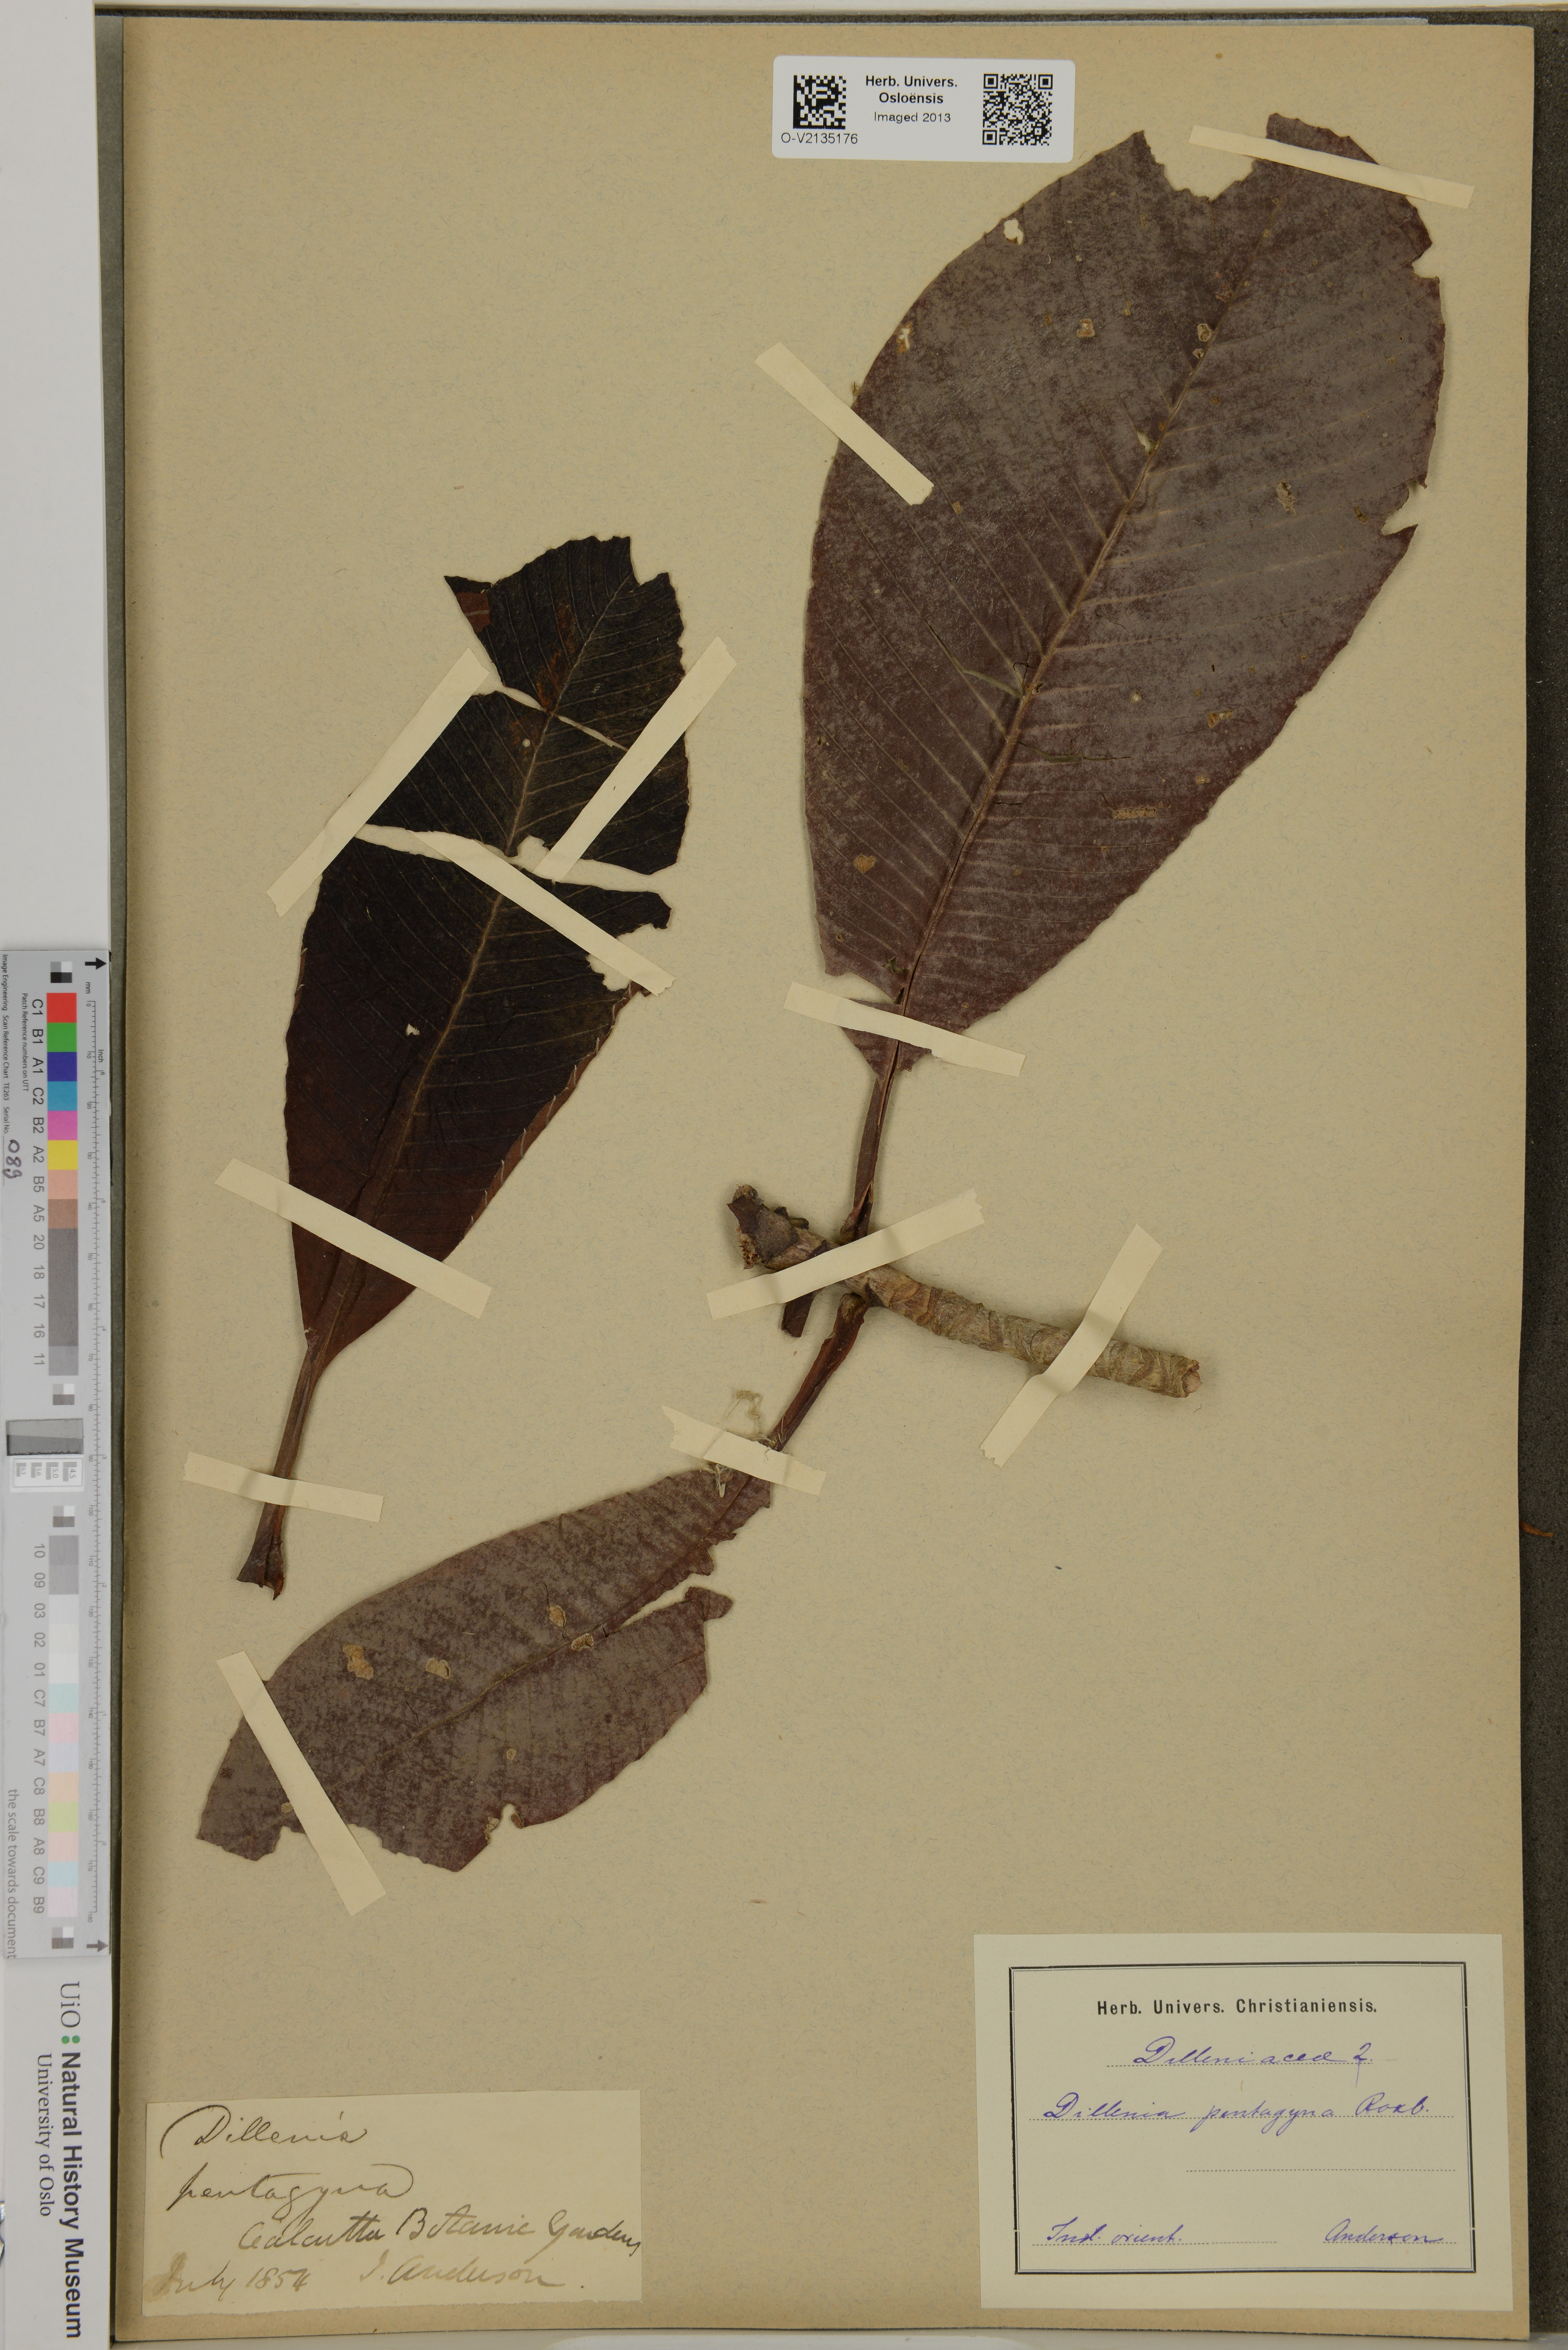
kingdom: Plantae
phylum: Tracheophyta
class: Magnoliopsida
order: Dilleniales
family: Dilleniaceae
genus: Dillenia
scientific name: Dillenia pentagyna
